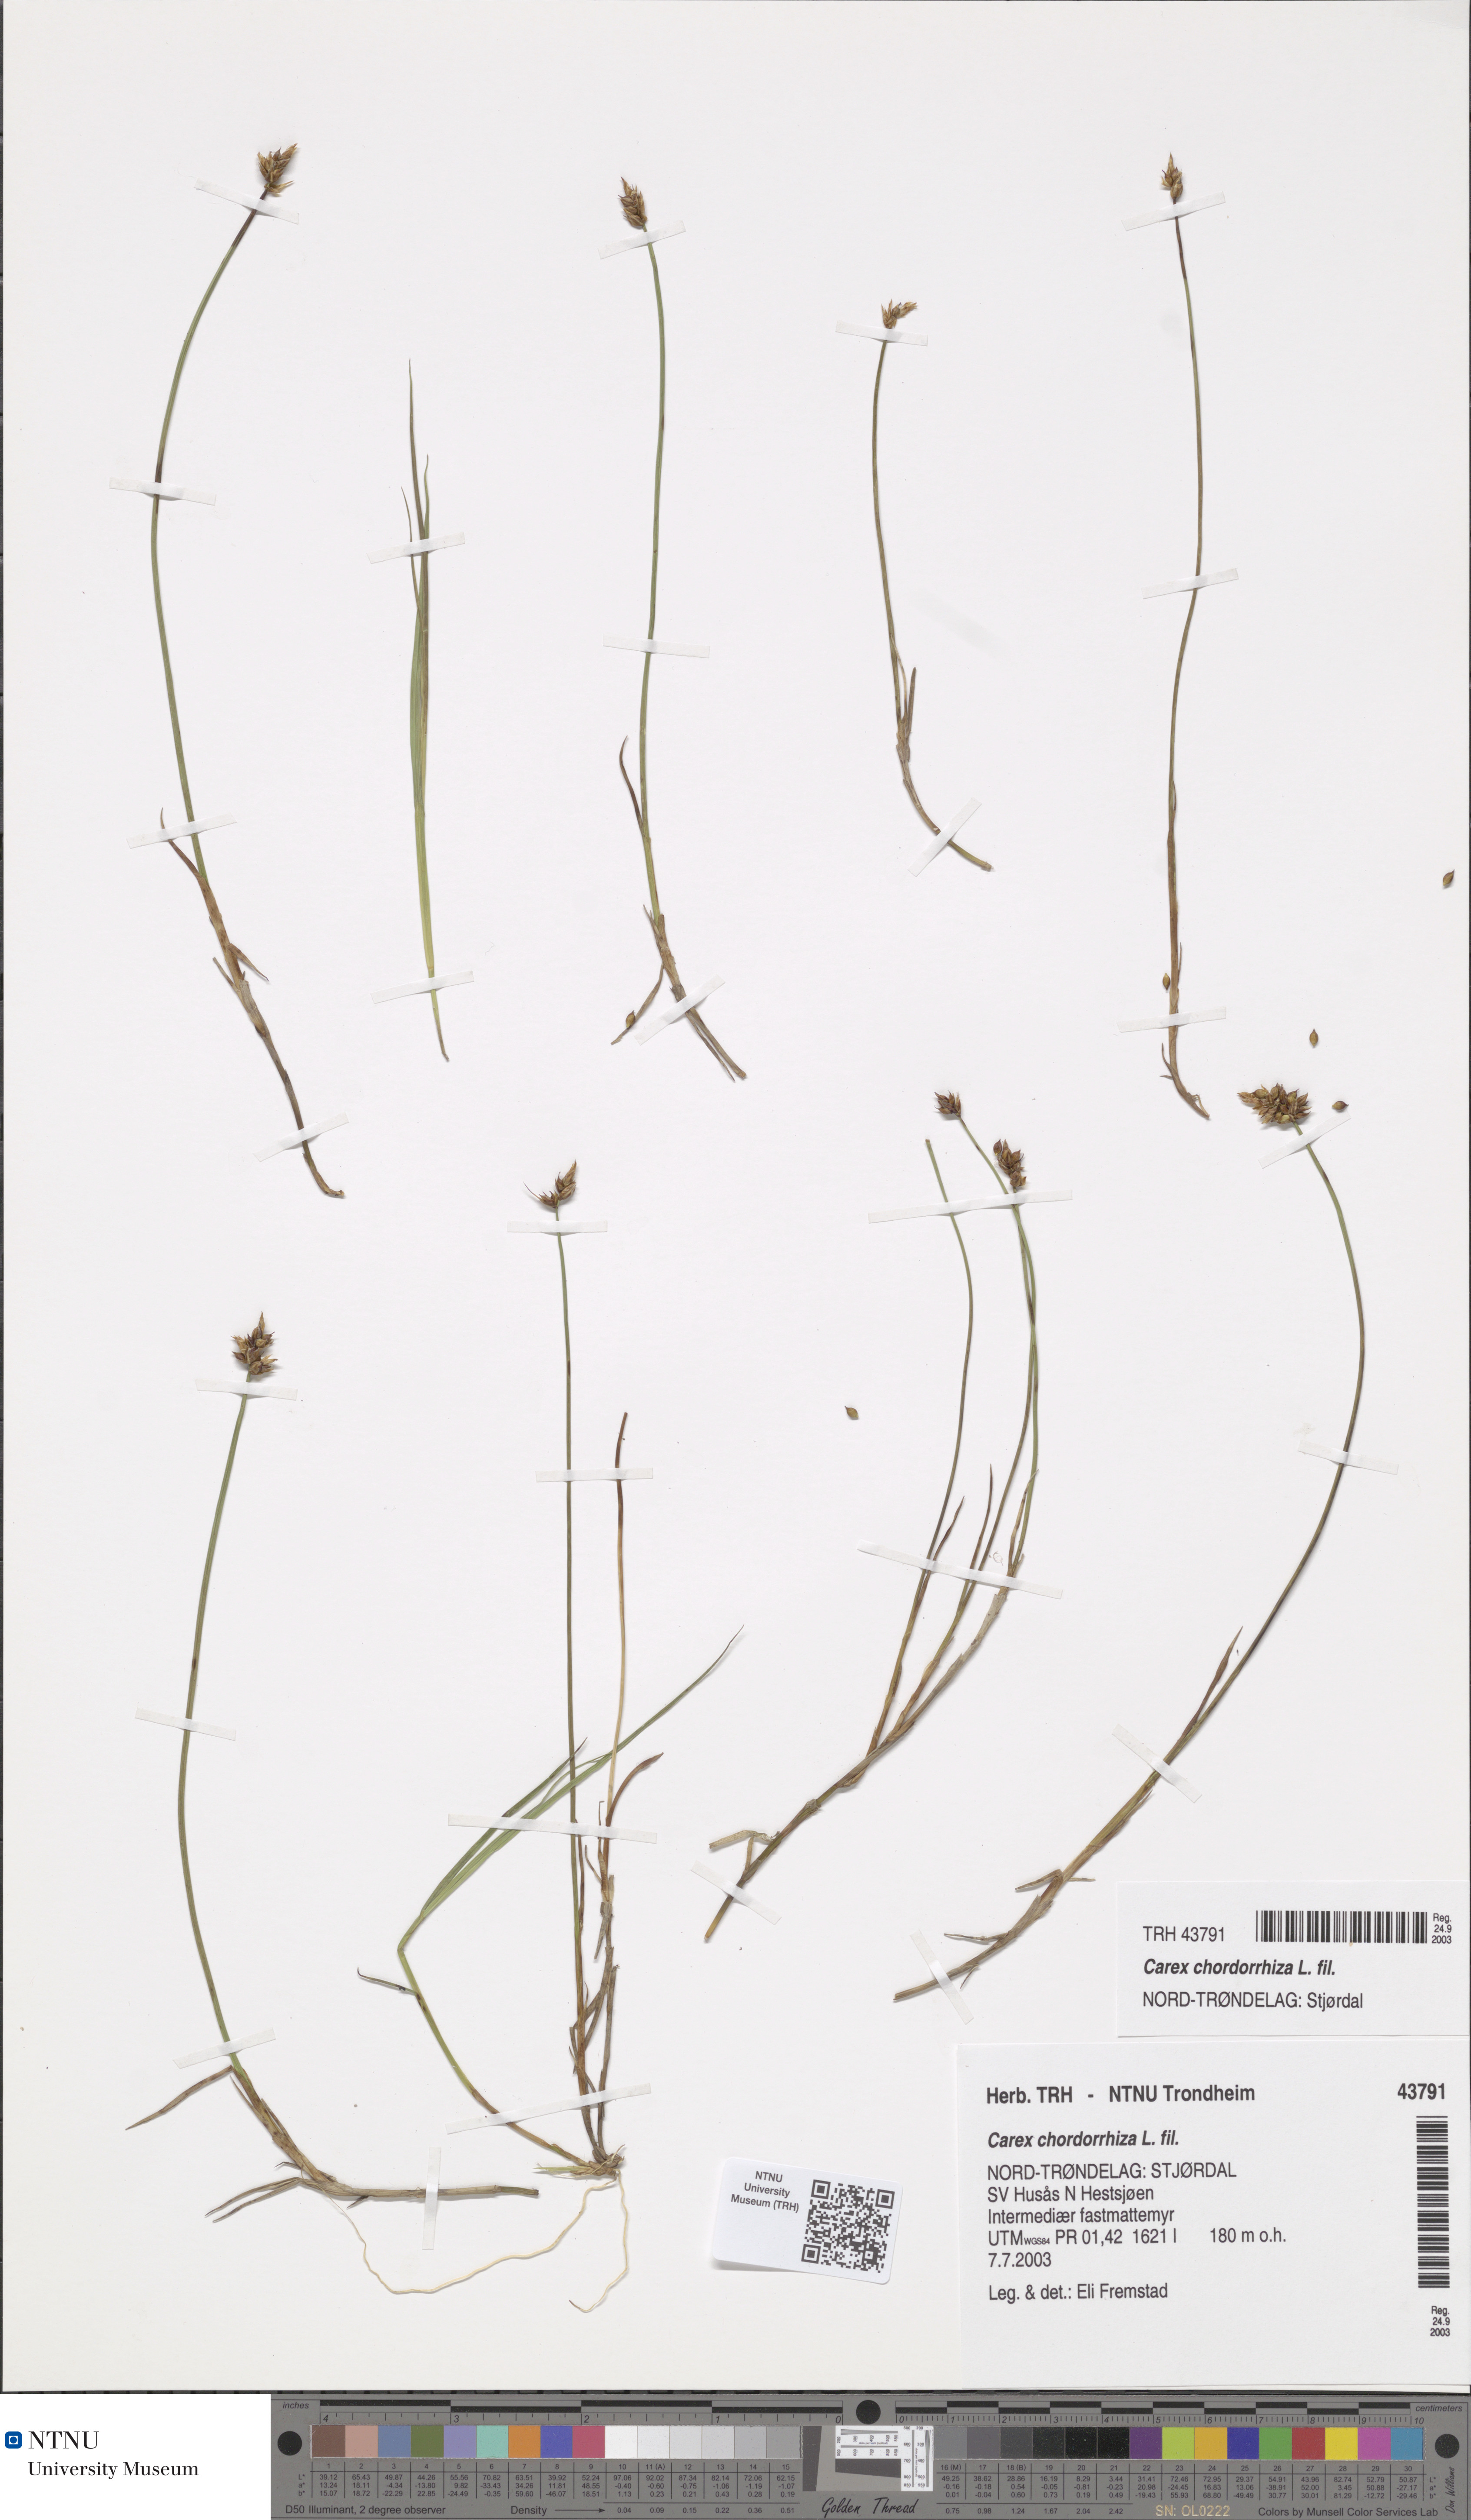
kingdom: Plantae
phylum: Tracheophyta
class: Liliopsida
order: Poales
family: Cyperaceae
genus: Carex
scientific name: Carex chordorrhiza
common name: String sedge
